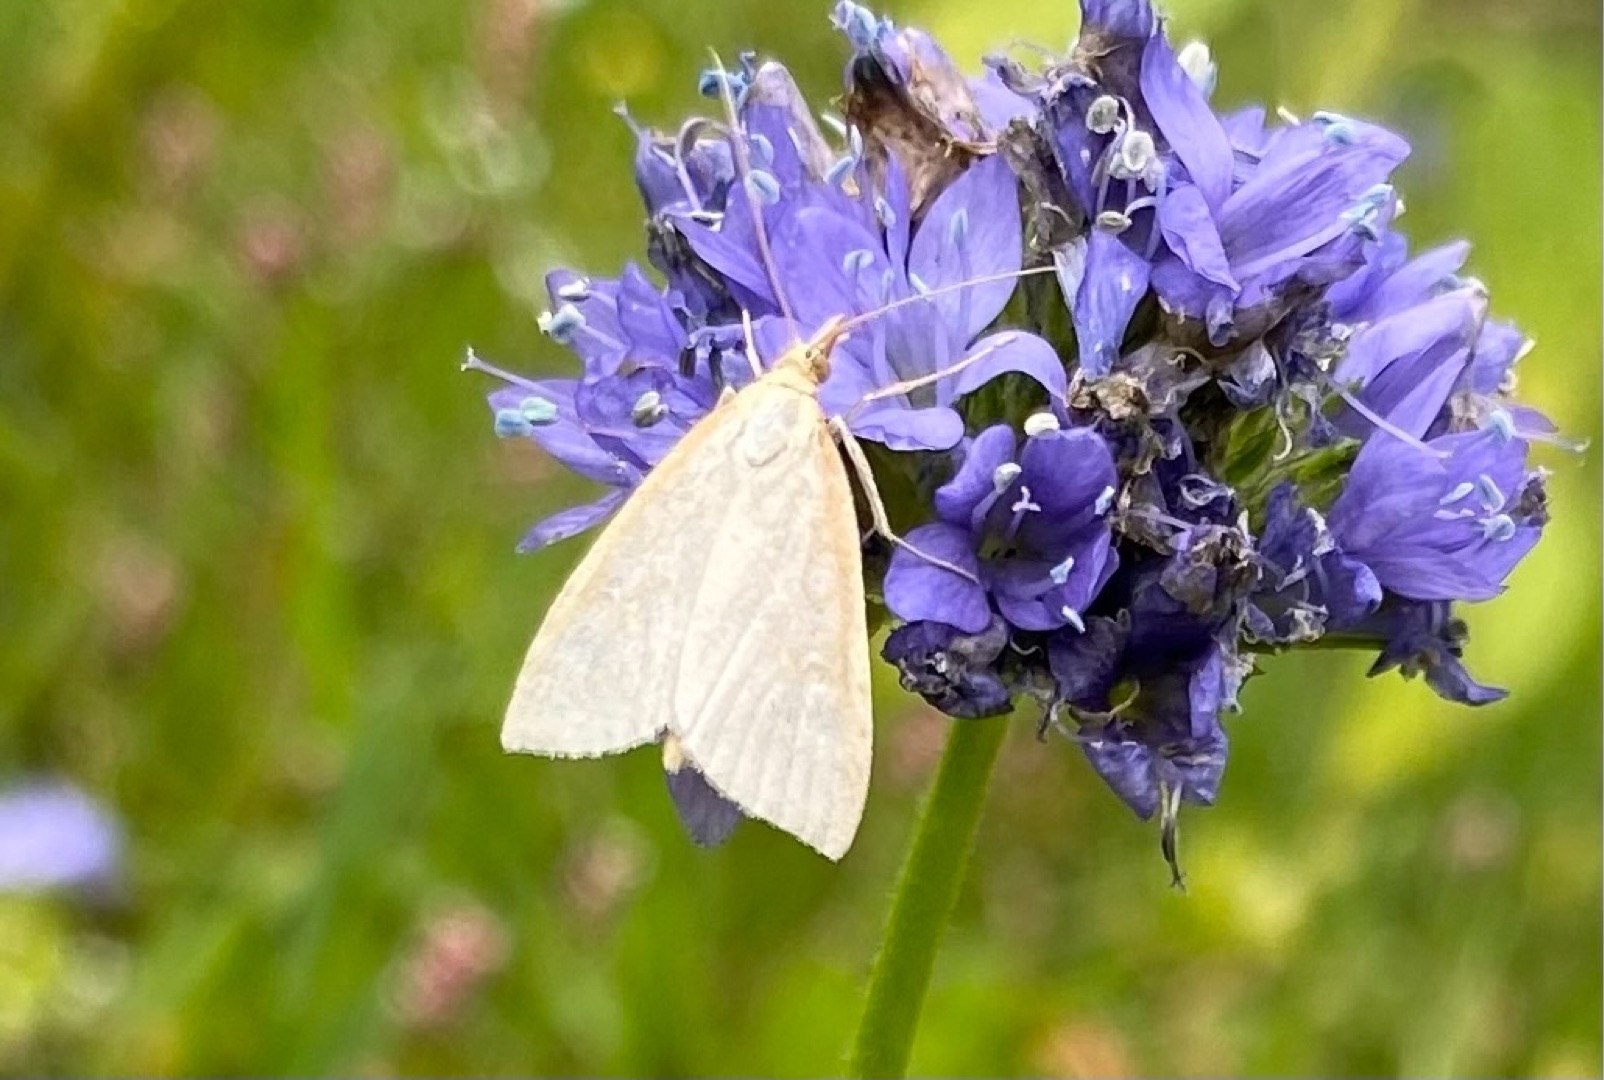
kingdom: Animalia
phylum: Arthropoda
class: Insecta
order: Lepidoptera
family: Crambidae
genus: Udea
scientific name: Udea lutealis
